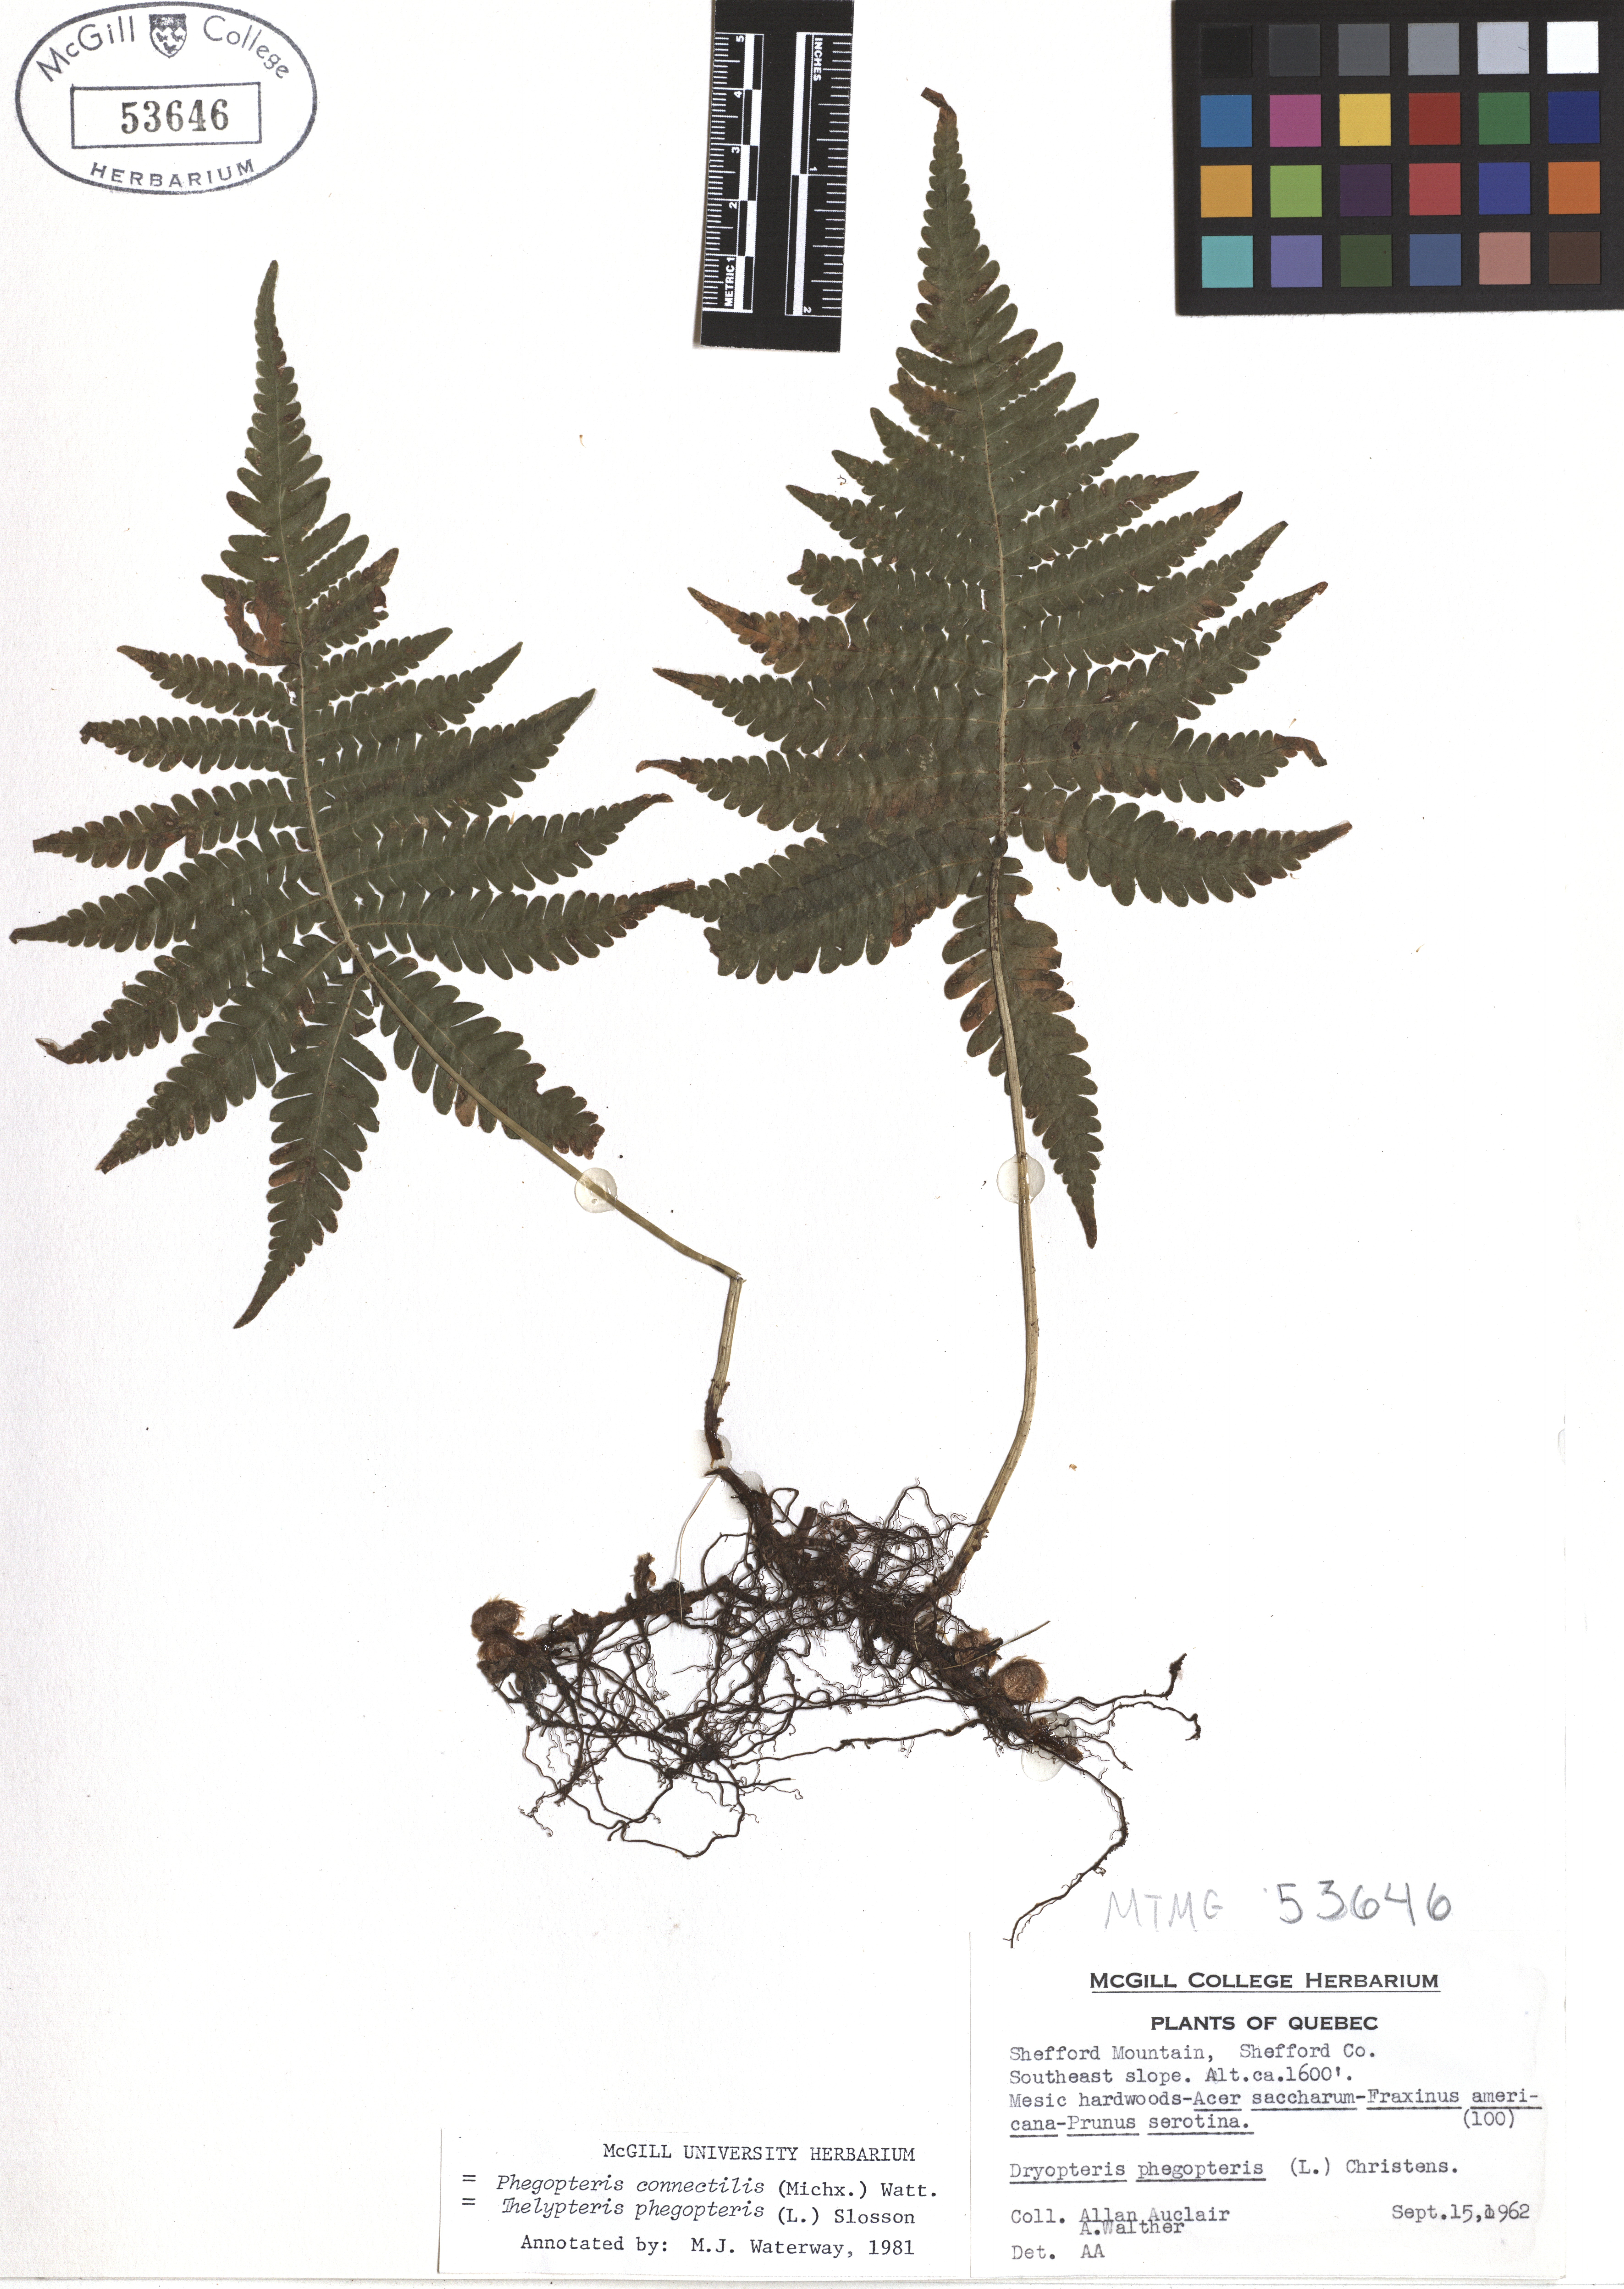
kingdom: Plantae
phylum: Tracheophyta
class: Polypodiopsida
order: Polypodiales
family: Thelypteridaceae
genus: Phegopteris
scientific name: Phegopteris connectilis
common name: Beech fern
